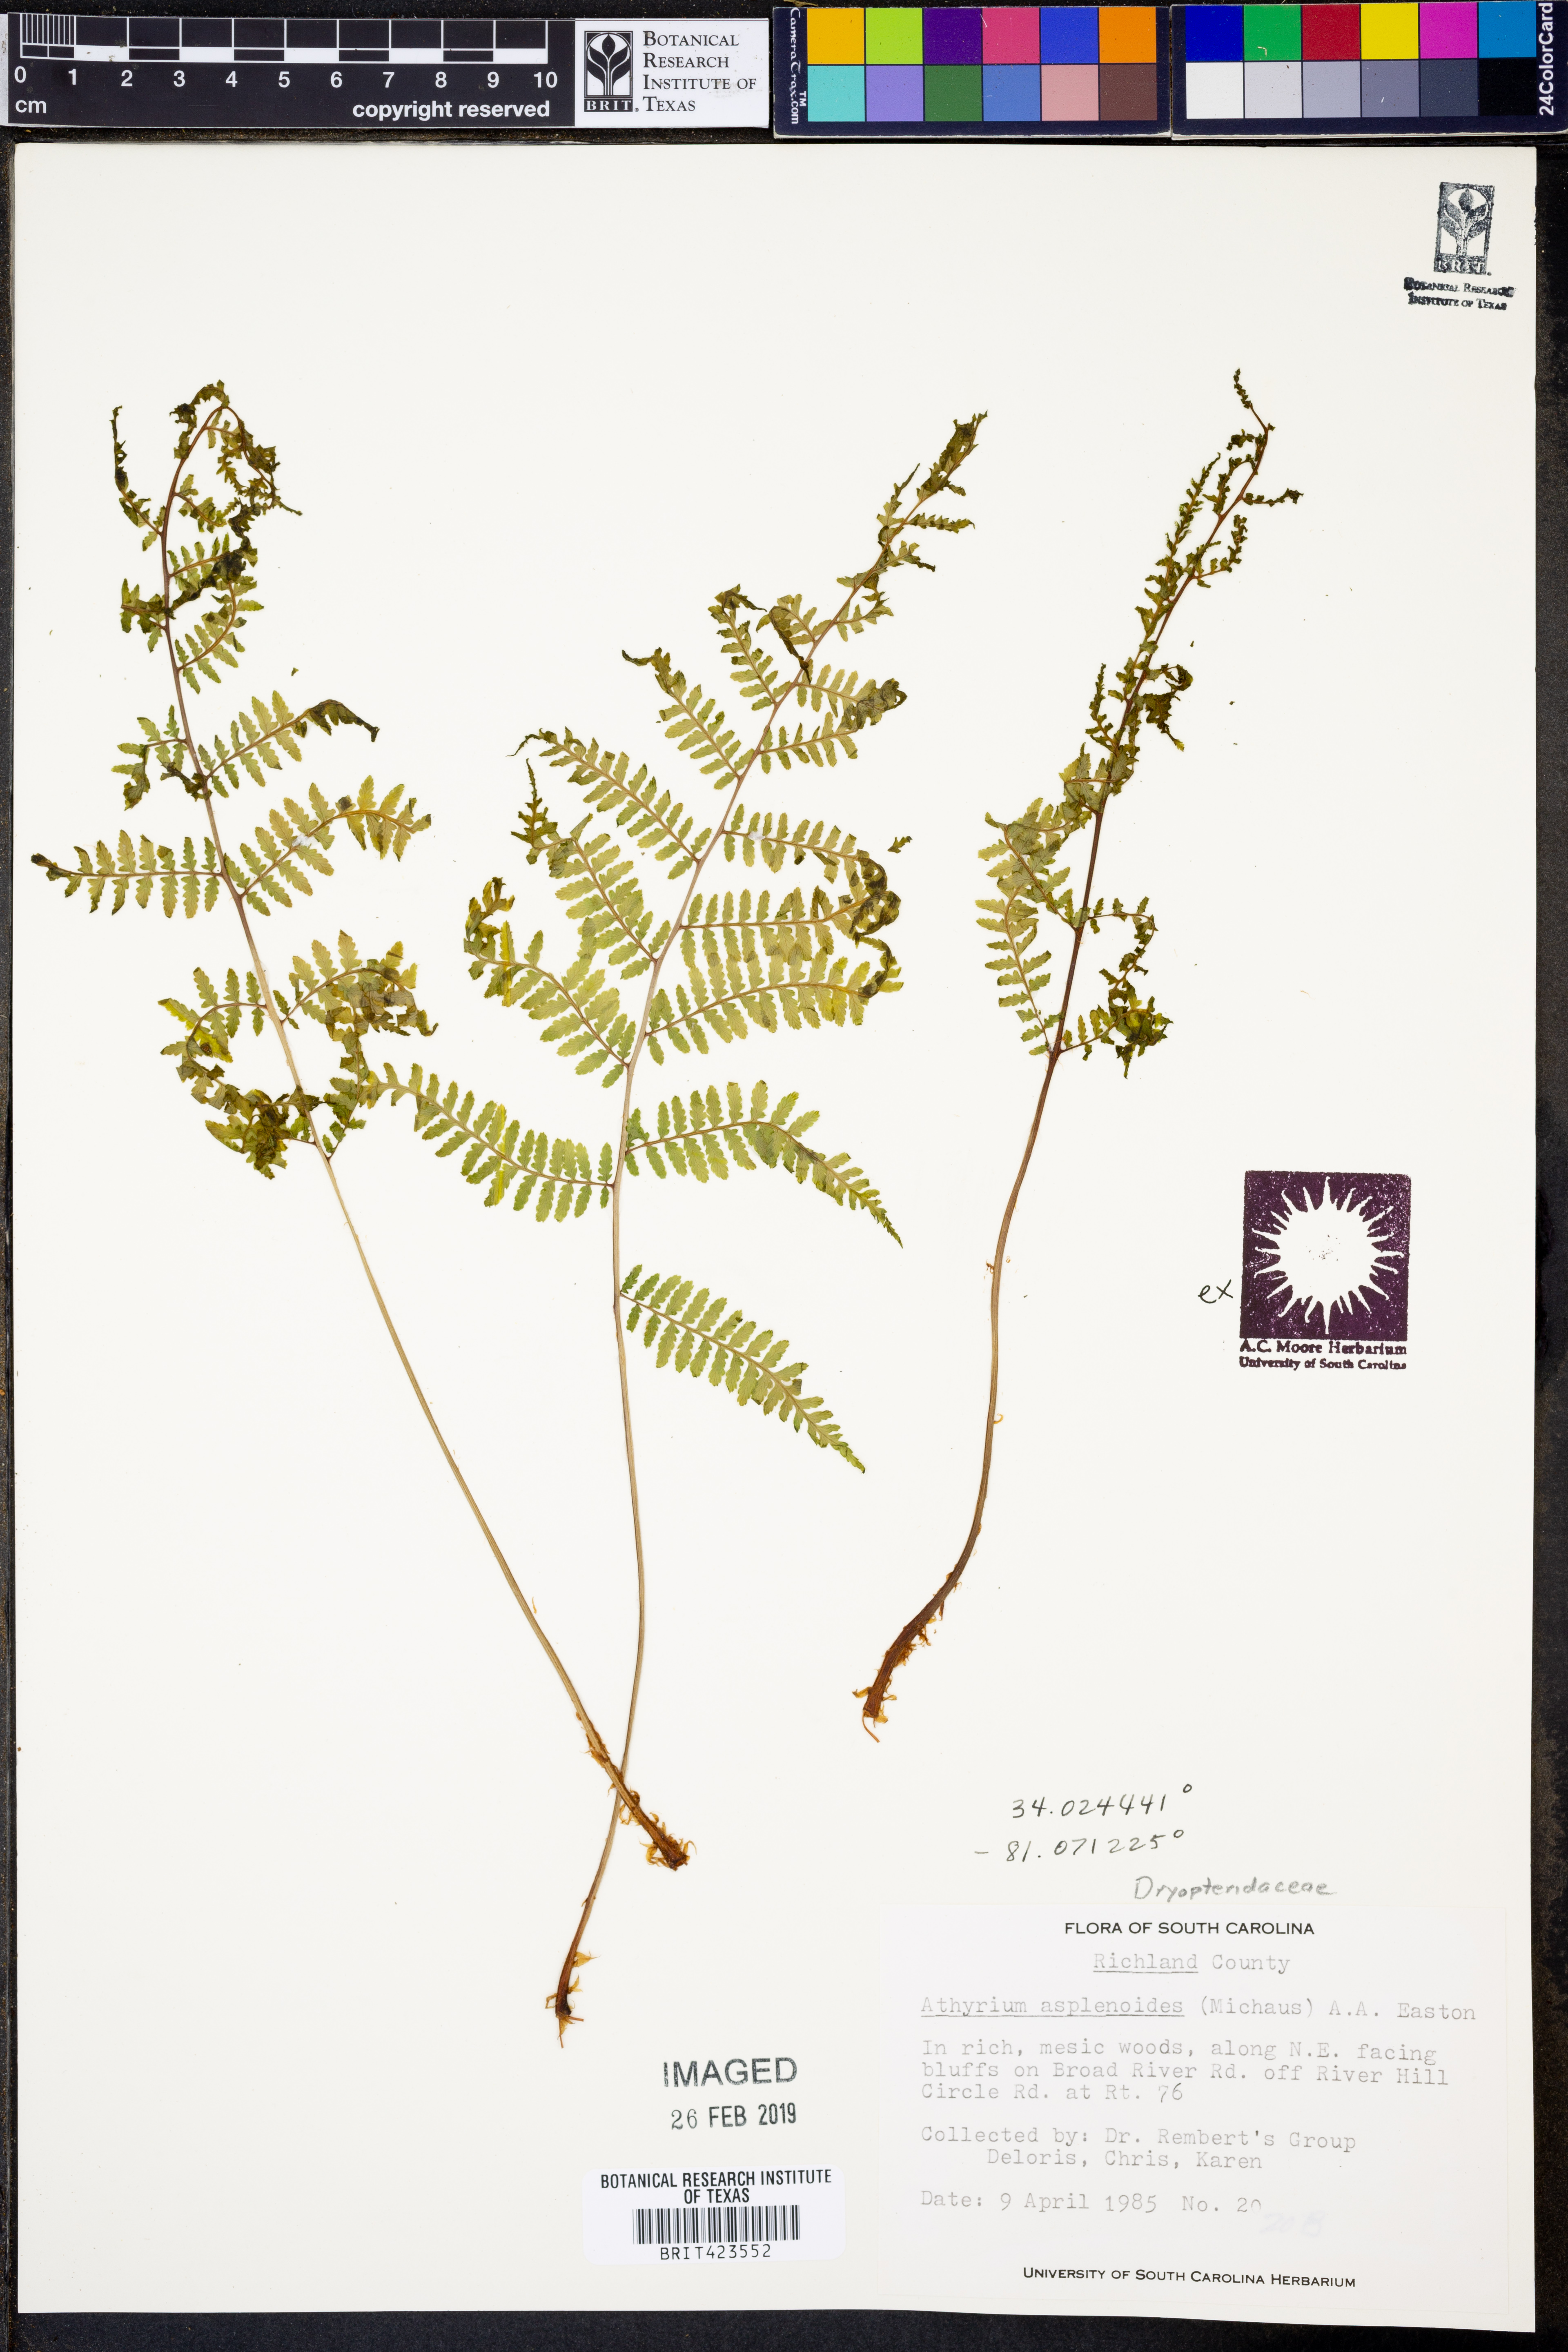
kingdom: Plantae
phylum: Tracheophyta
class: Polypodiopsida
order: Polypodiales
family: Athyriaceae
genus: Athyrium
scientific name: Athyrium asplenoides
